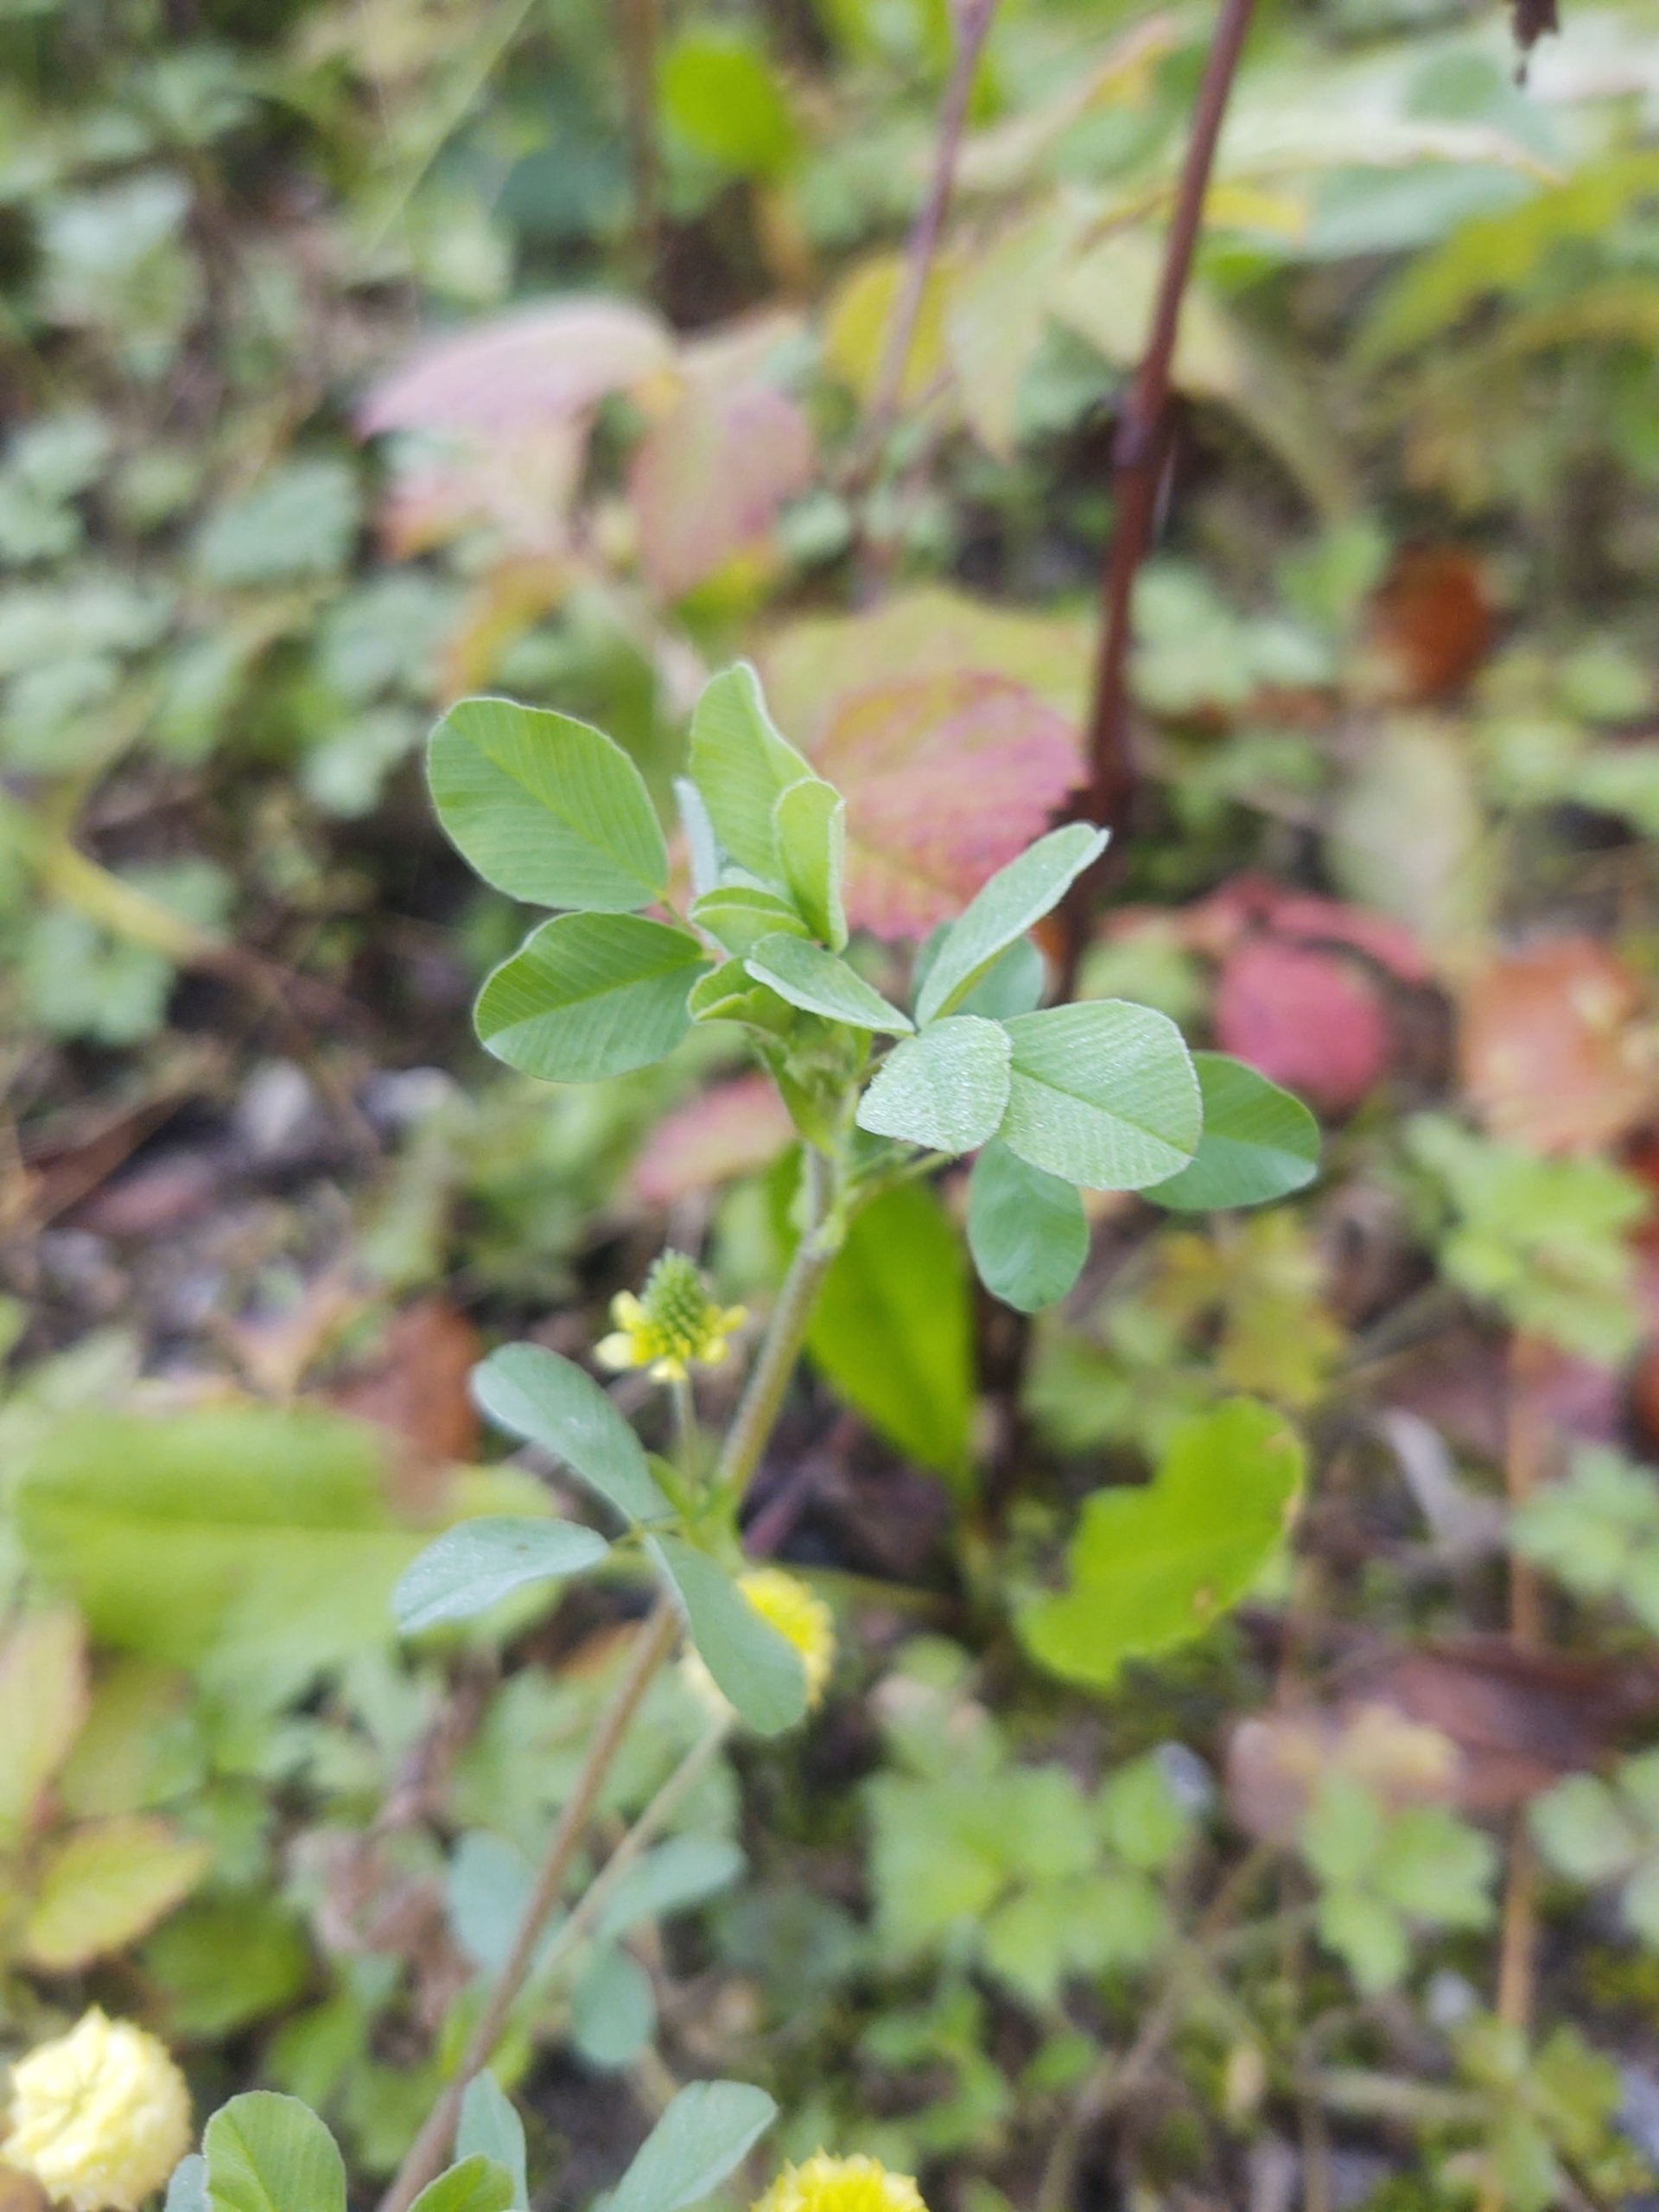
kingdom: Plantae
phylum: Tracheophyta
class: Magnoliopsida
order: Fabales
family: Fabaceae
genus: Trifolium
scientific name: Trifolium campestre
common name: Gul kløver
